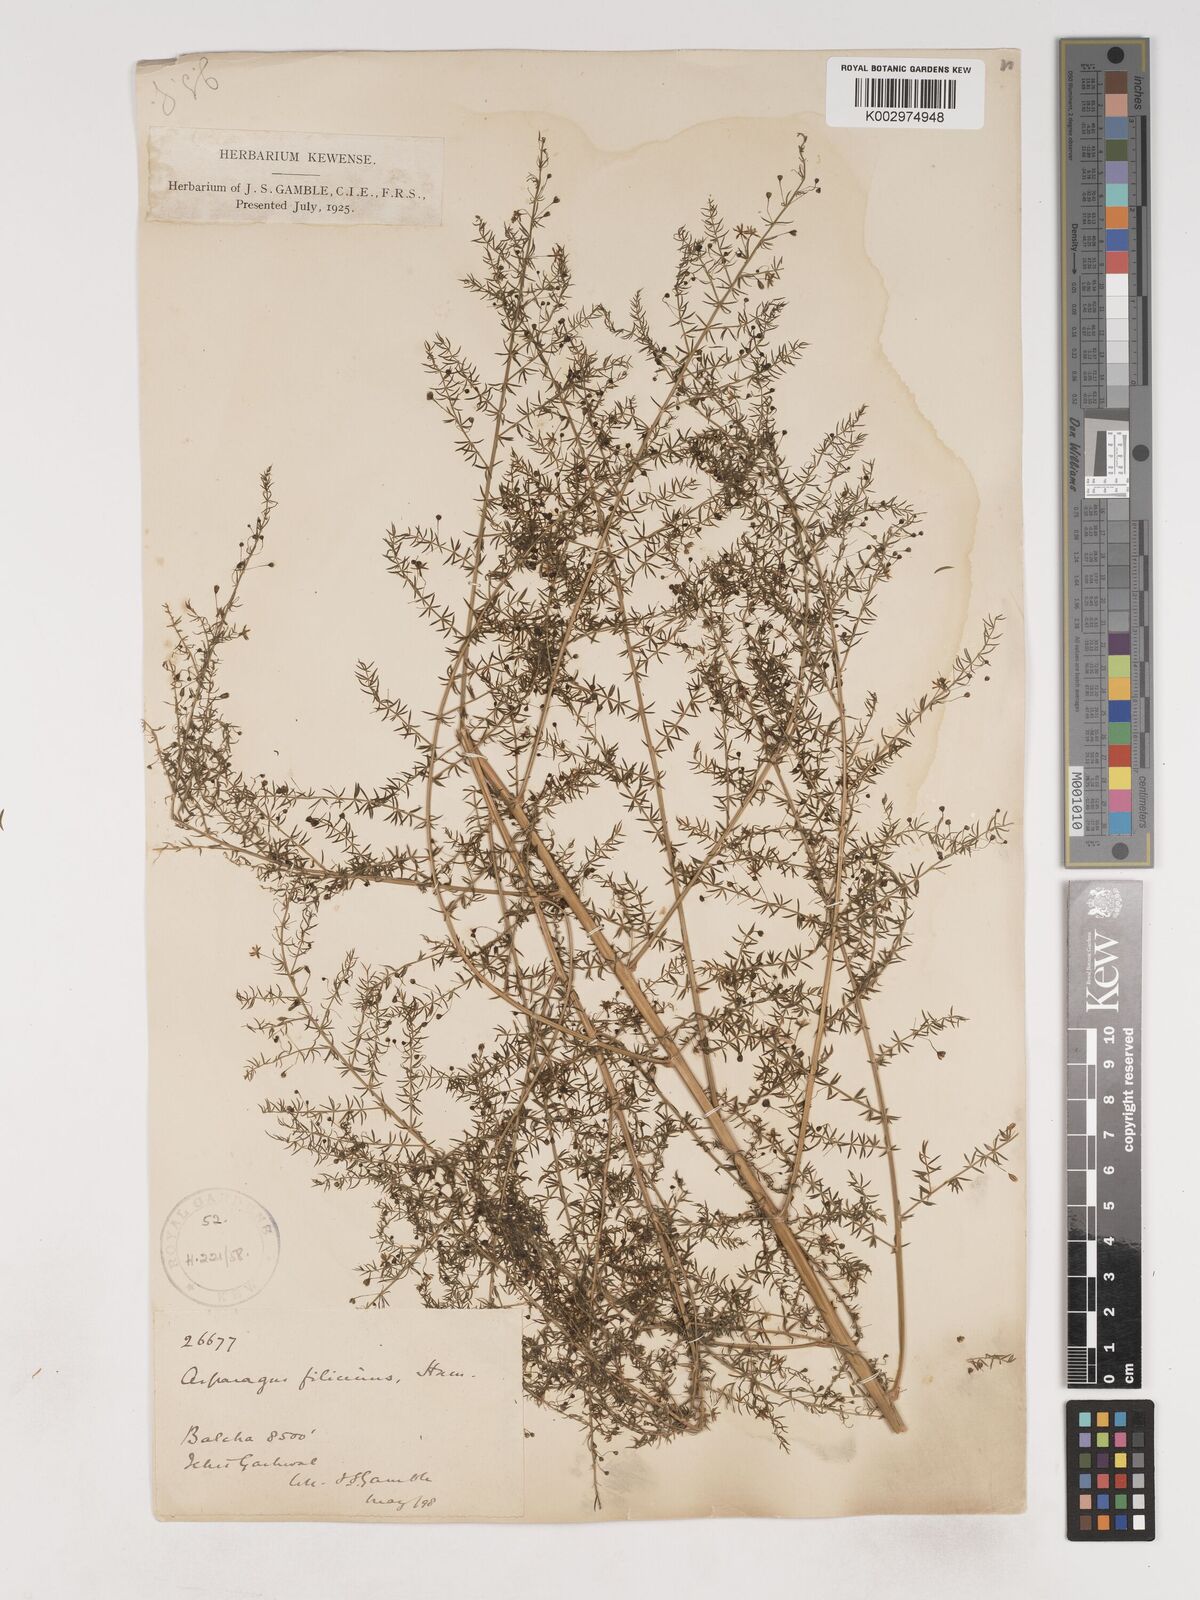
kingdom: Plantae
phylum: Tracheophyta
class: Liliopsida
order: Asparagales
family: Asparagaceae
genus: Asparagus
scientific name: Asparagus filicinus
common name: Fern asparagus
